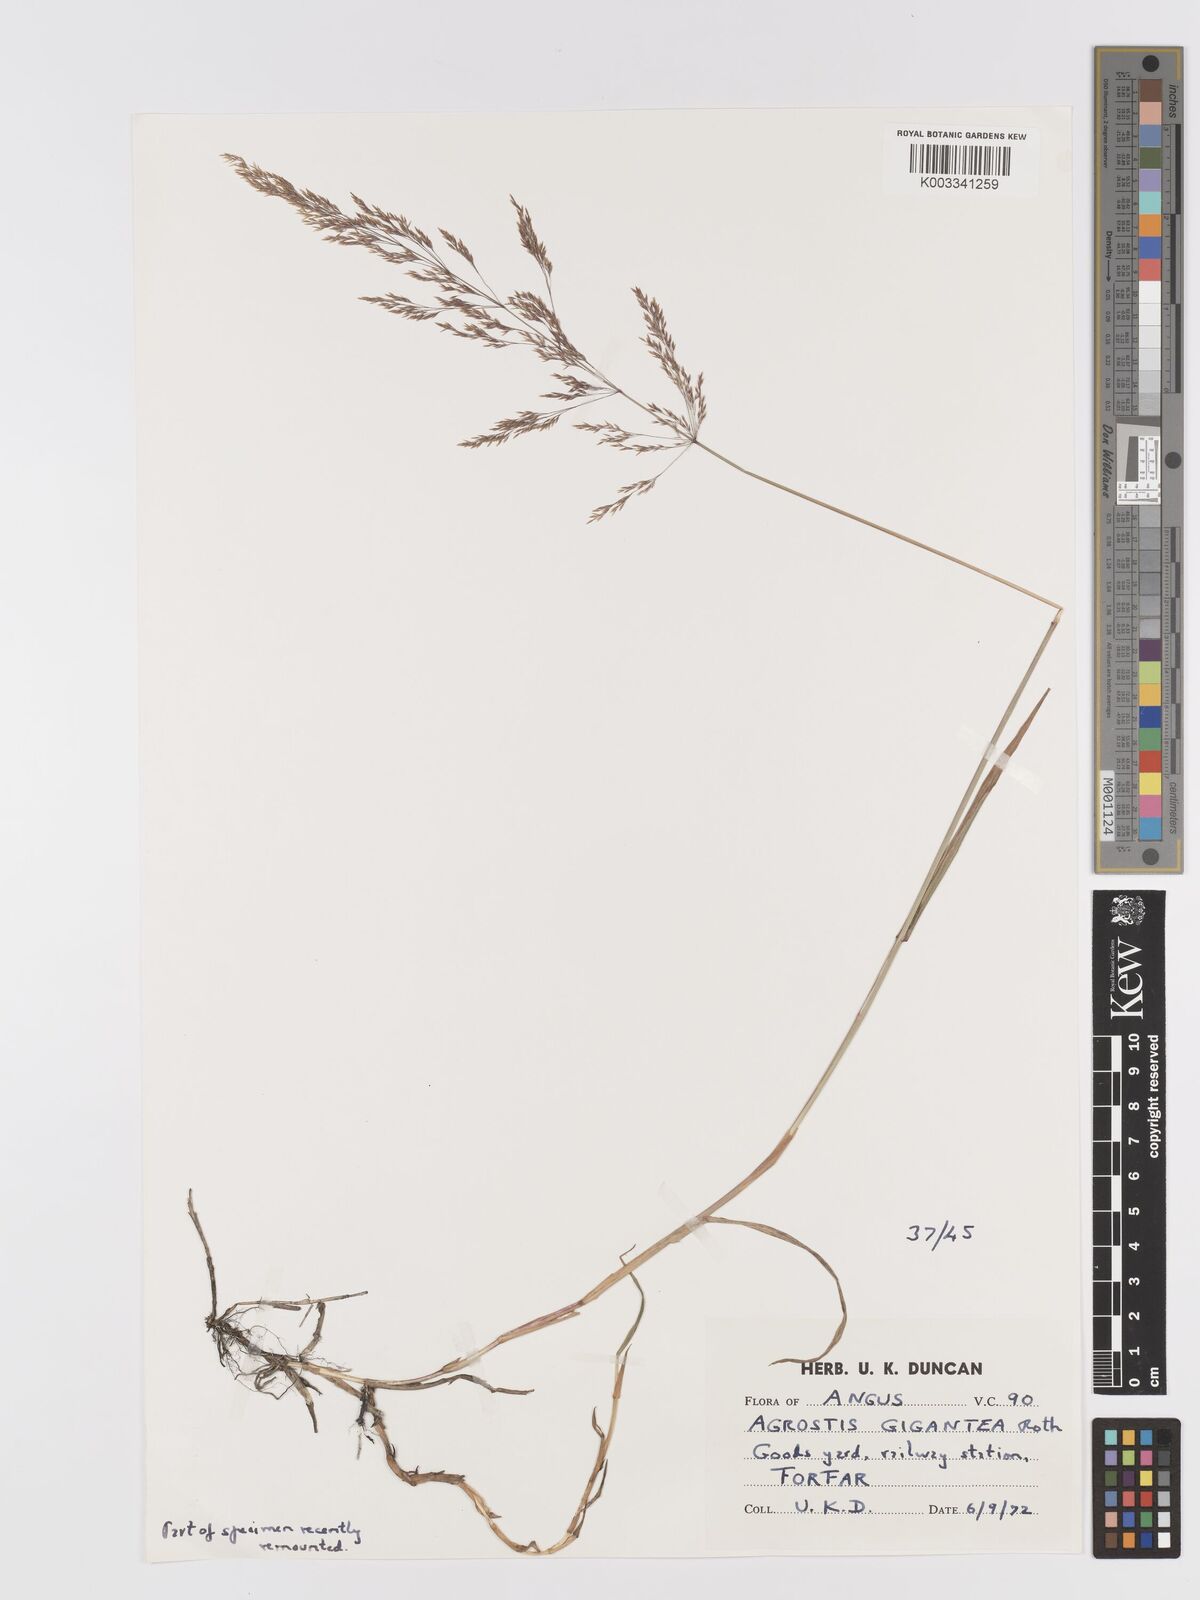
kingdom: Plantae
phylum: Tracheophyta
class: Liliopsida
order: Poales
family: Poaceae
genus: Agrostis
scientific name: Agrostis gigantea
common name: Black bent
